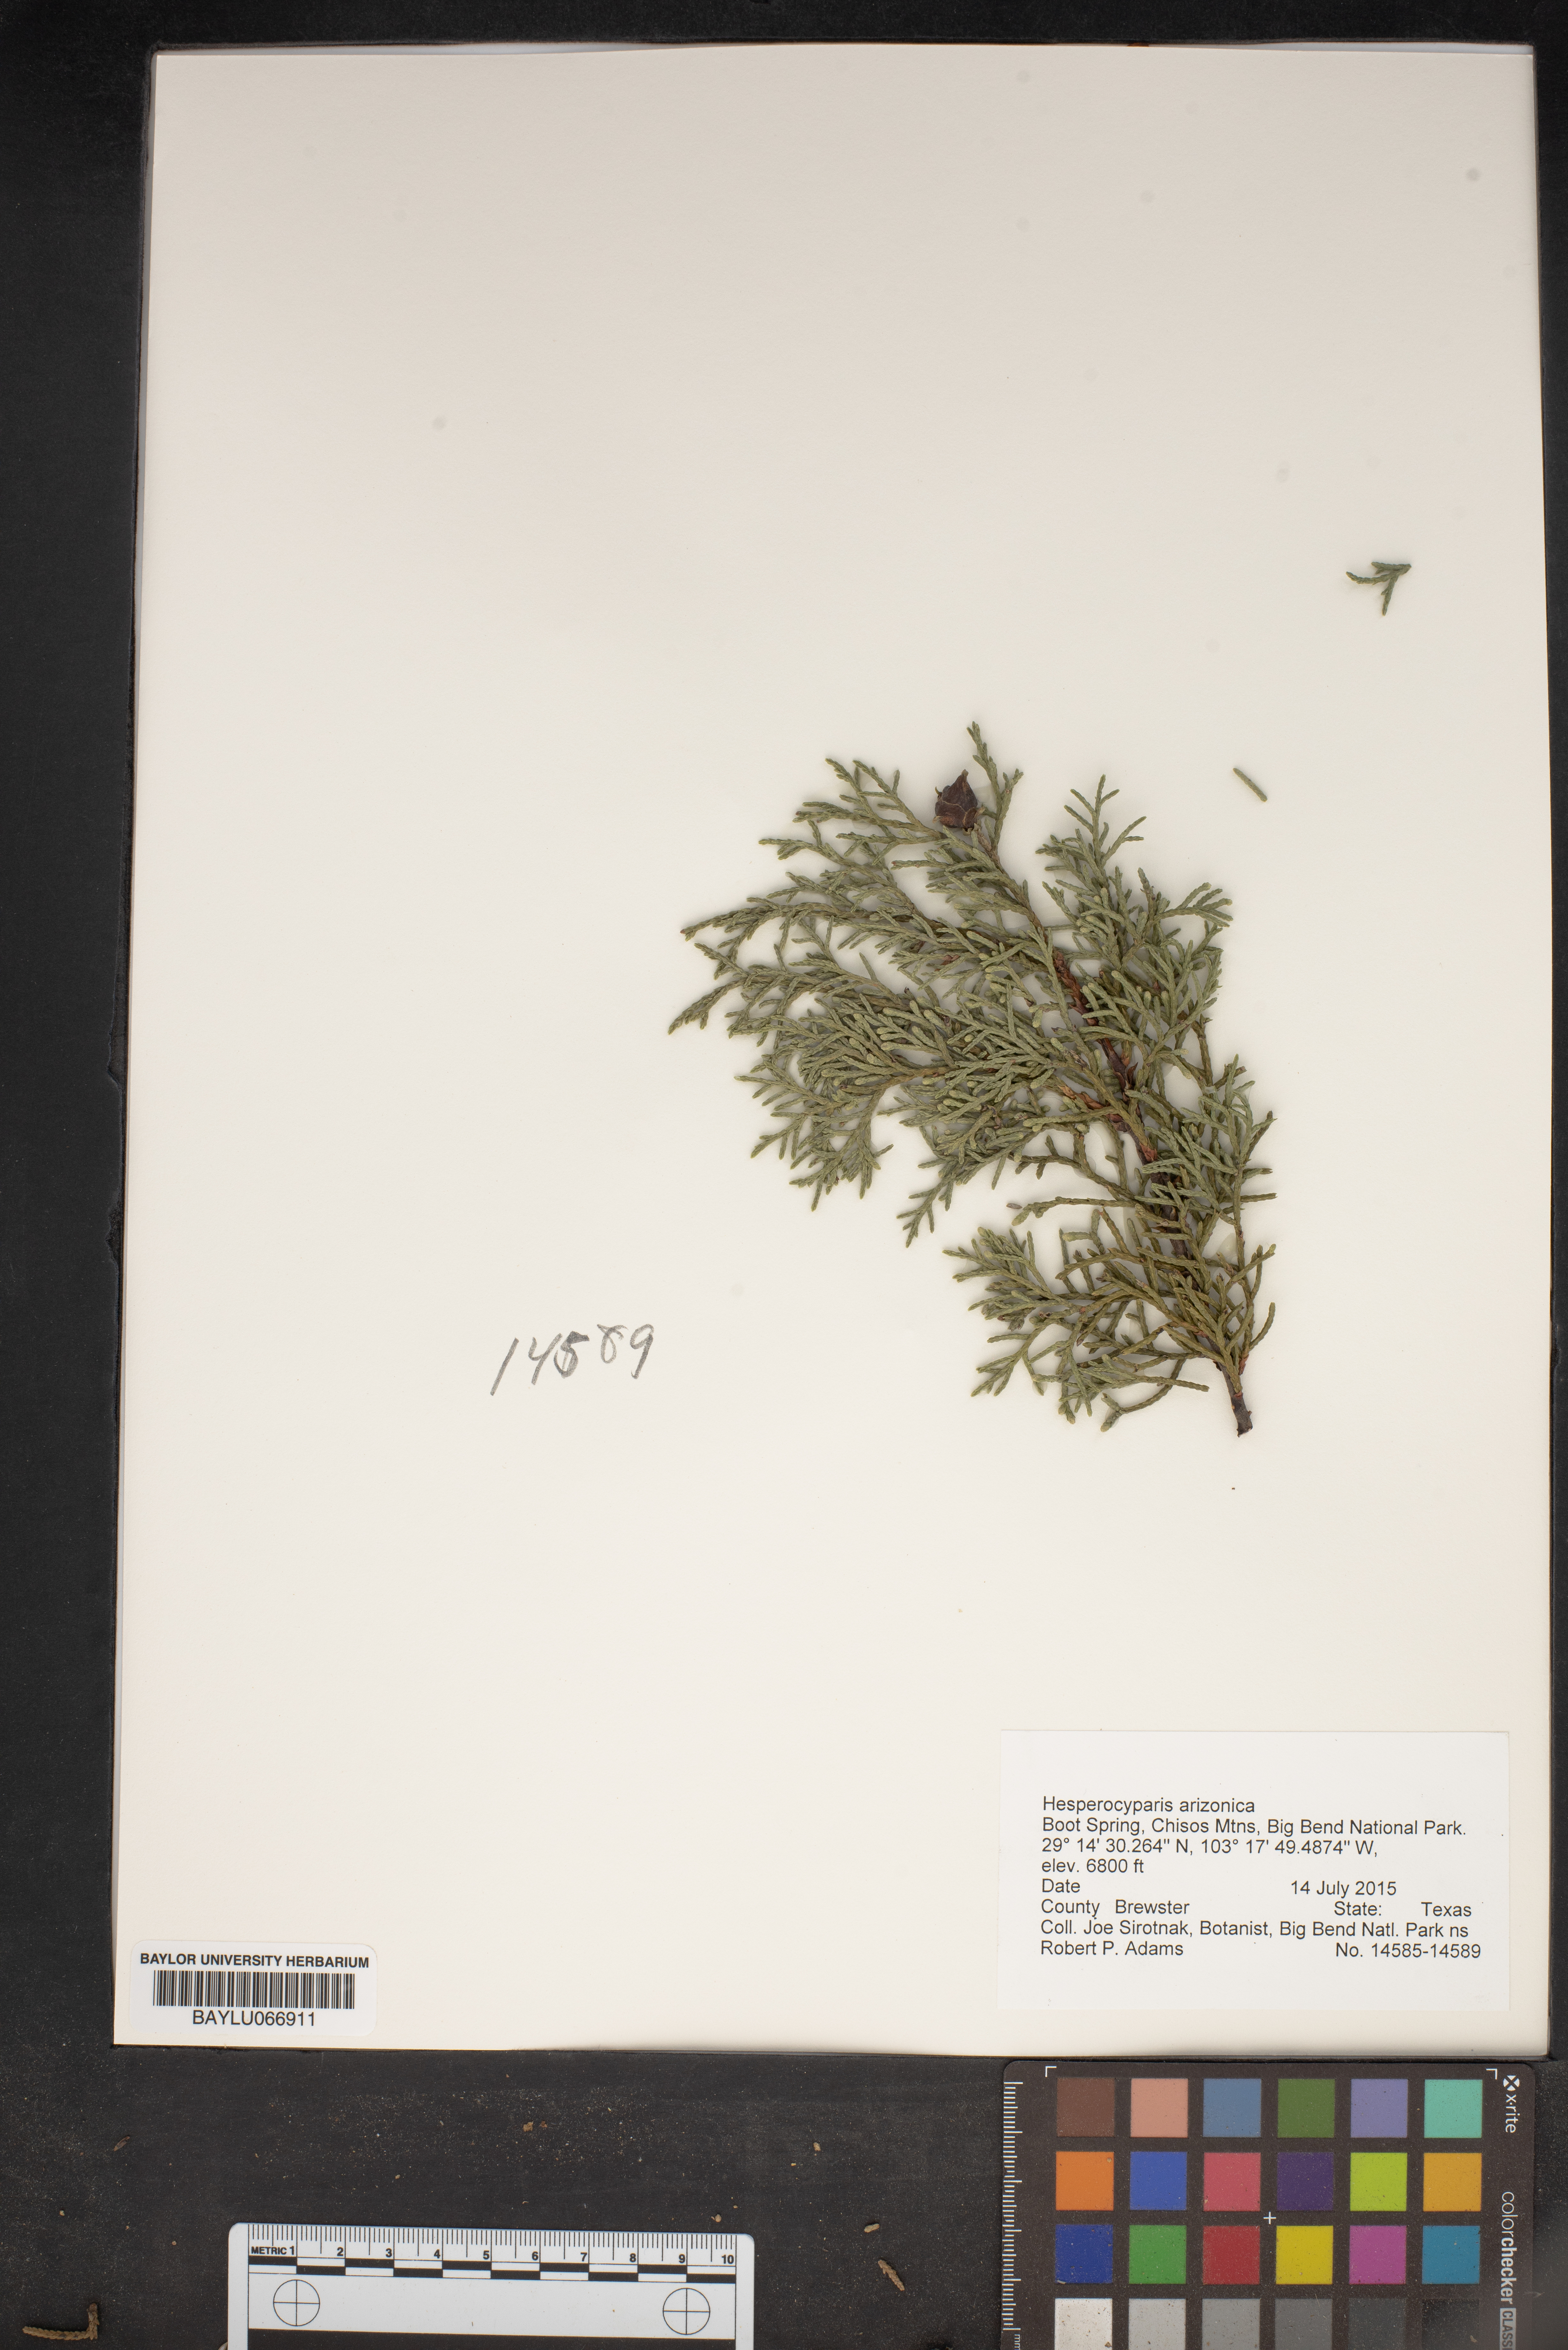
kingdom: Plantae
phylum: Tracheophyta
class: Pinopsida
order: Pinales
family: Cupressaceae
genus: Cupressus
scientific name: Cupressus arizonica
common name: Arizona cypress
